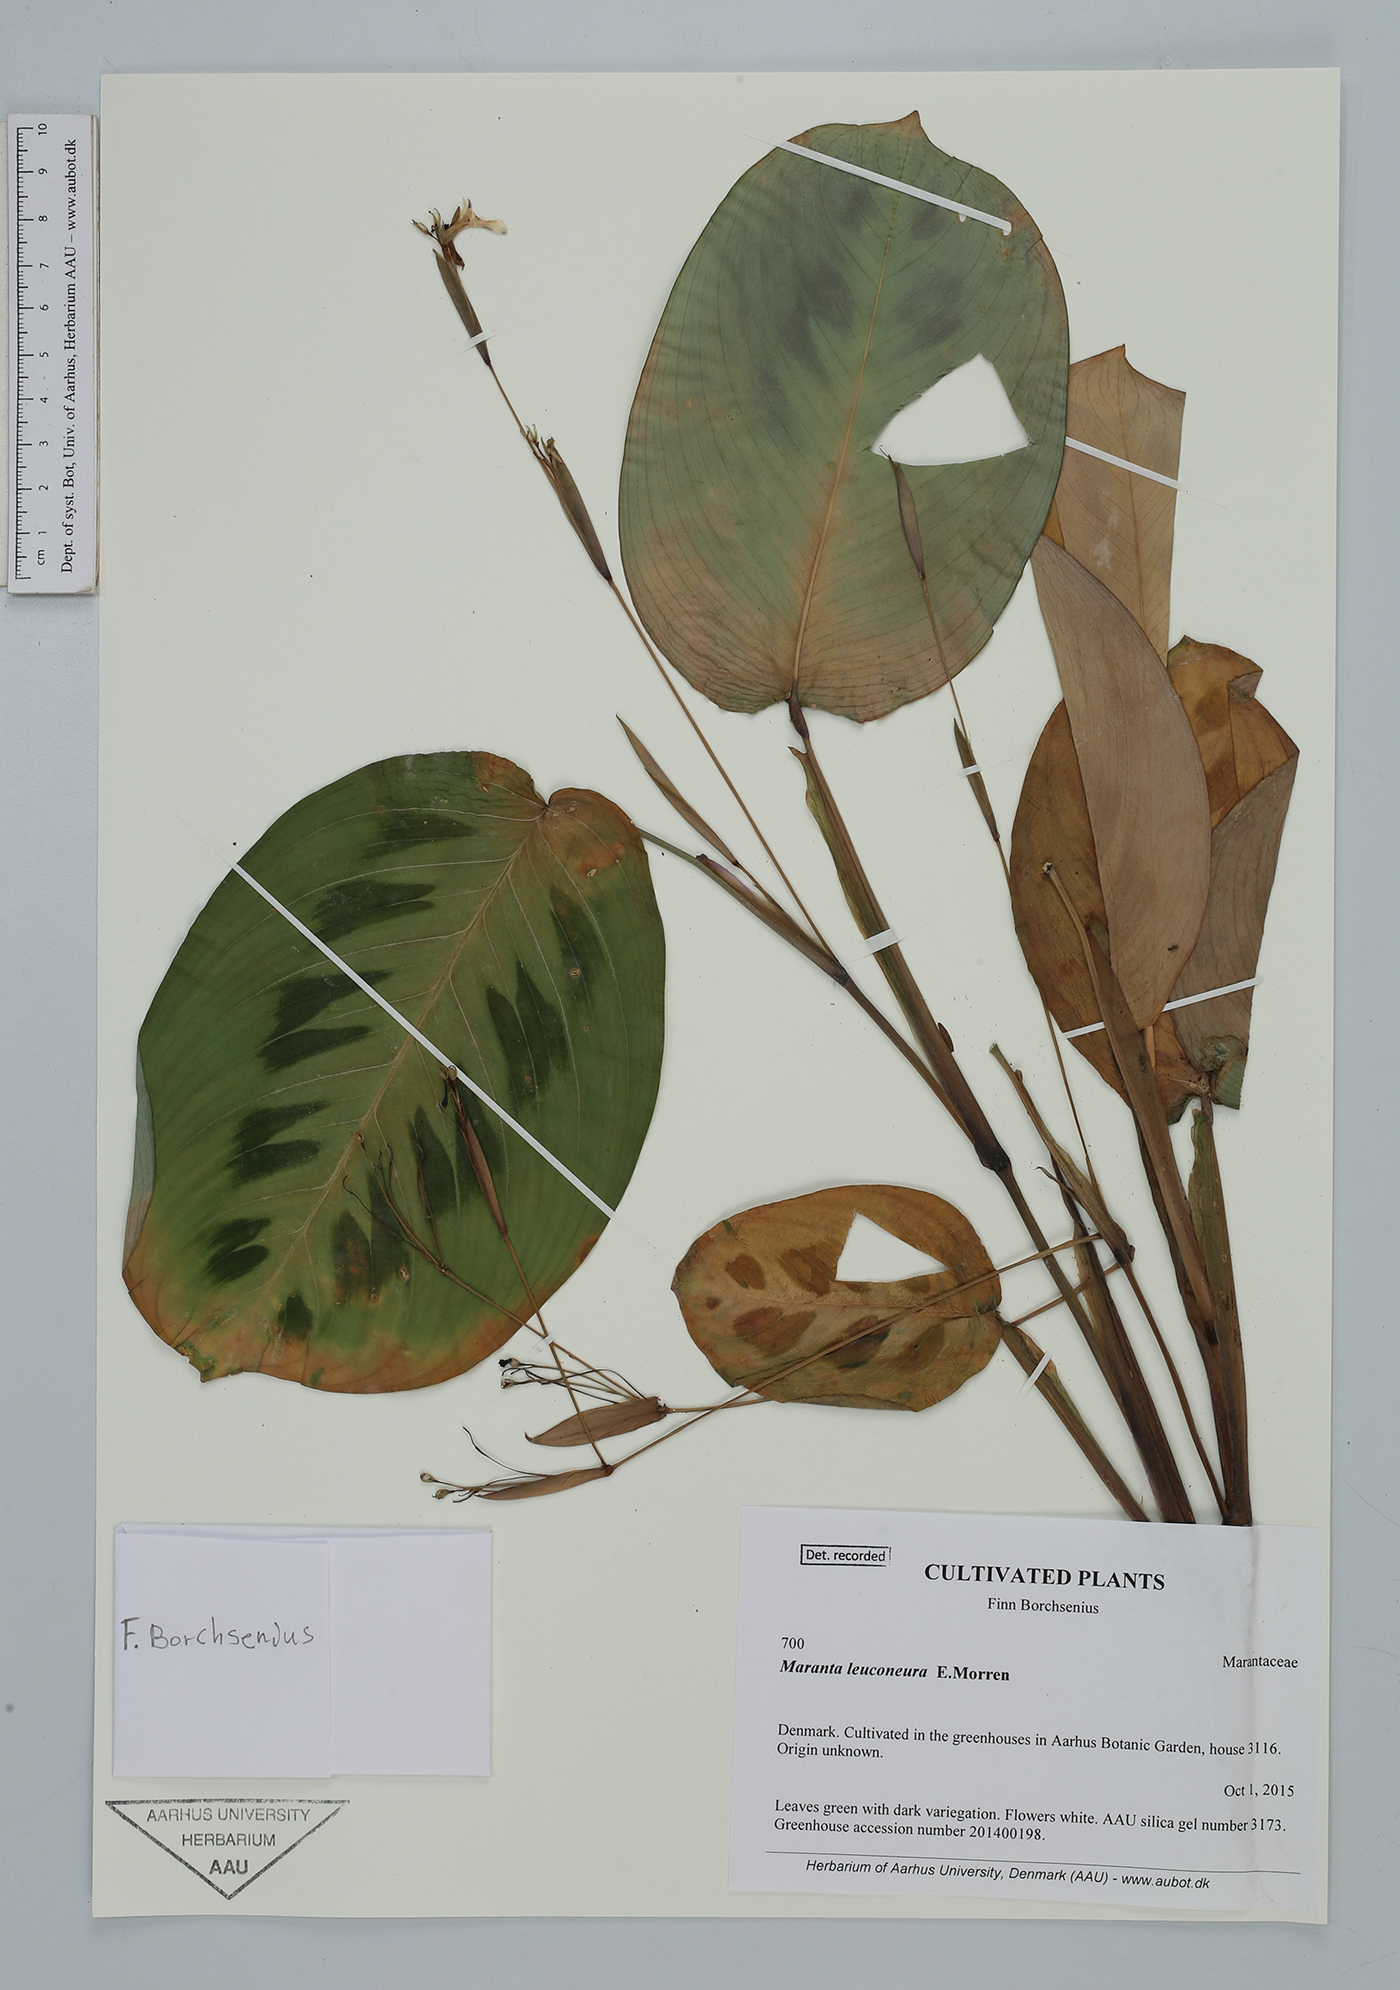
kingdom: Plantae
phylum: Tracheophyta
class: Liliopsida
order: Zingiberales
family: Marantaceae
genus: Maranta
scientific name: Maranta leuconeura
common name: Ten-commandments
